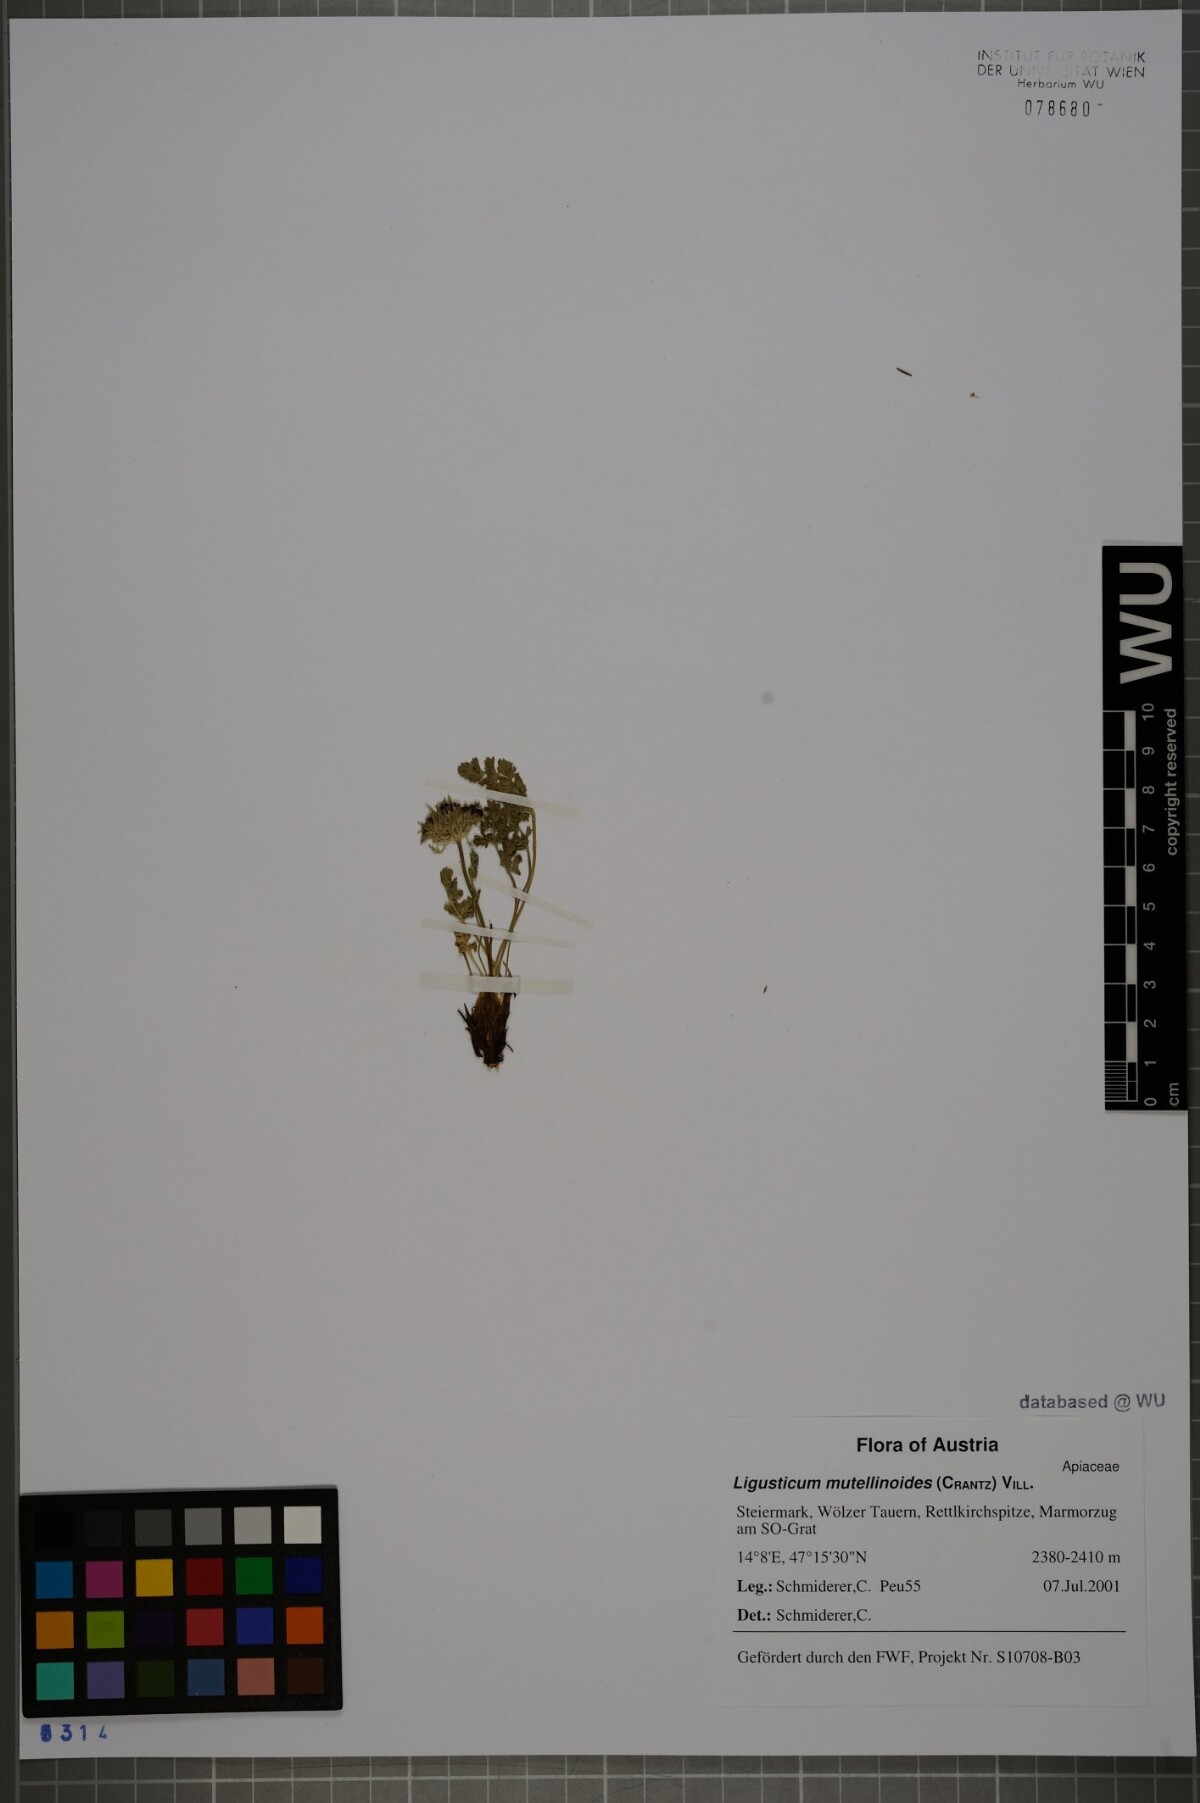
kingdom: Plantae
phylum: Tracheophyta
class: Magnoliopsida
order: Apiales
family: Apiaceae
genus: Pachypleurum
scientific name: Pachypleurum mutellinoides
